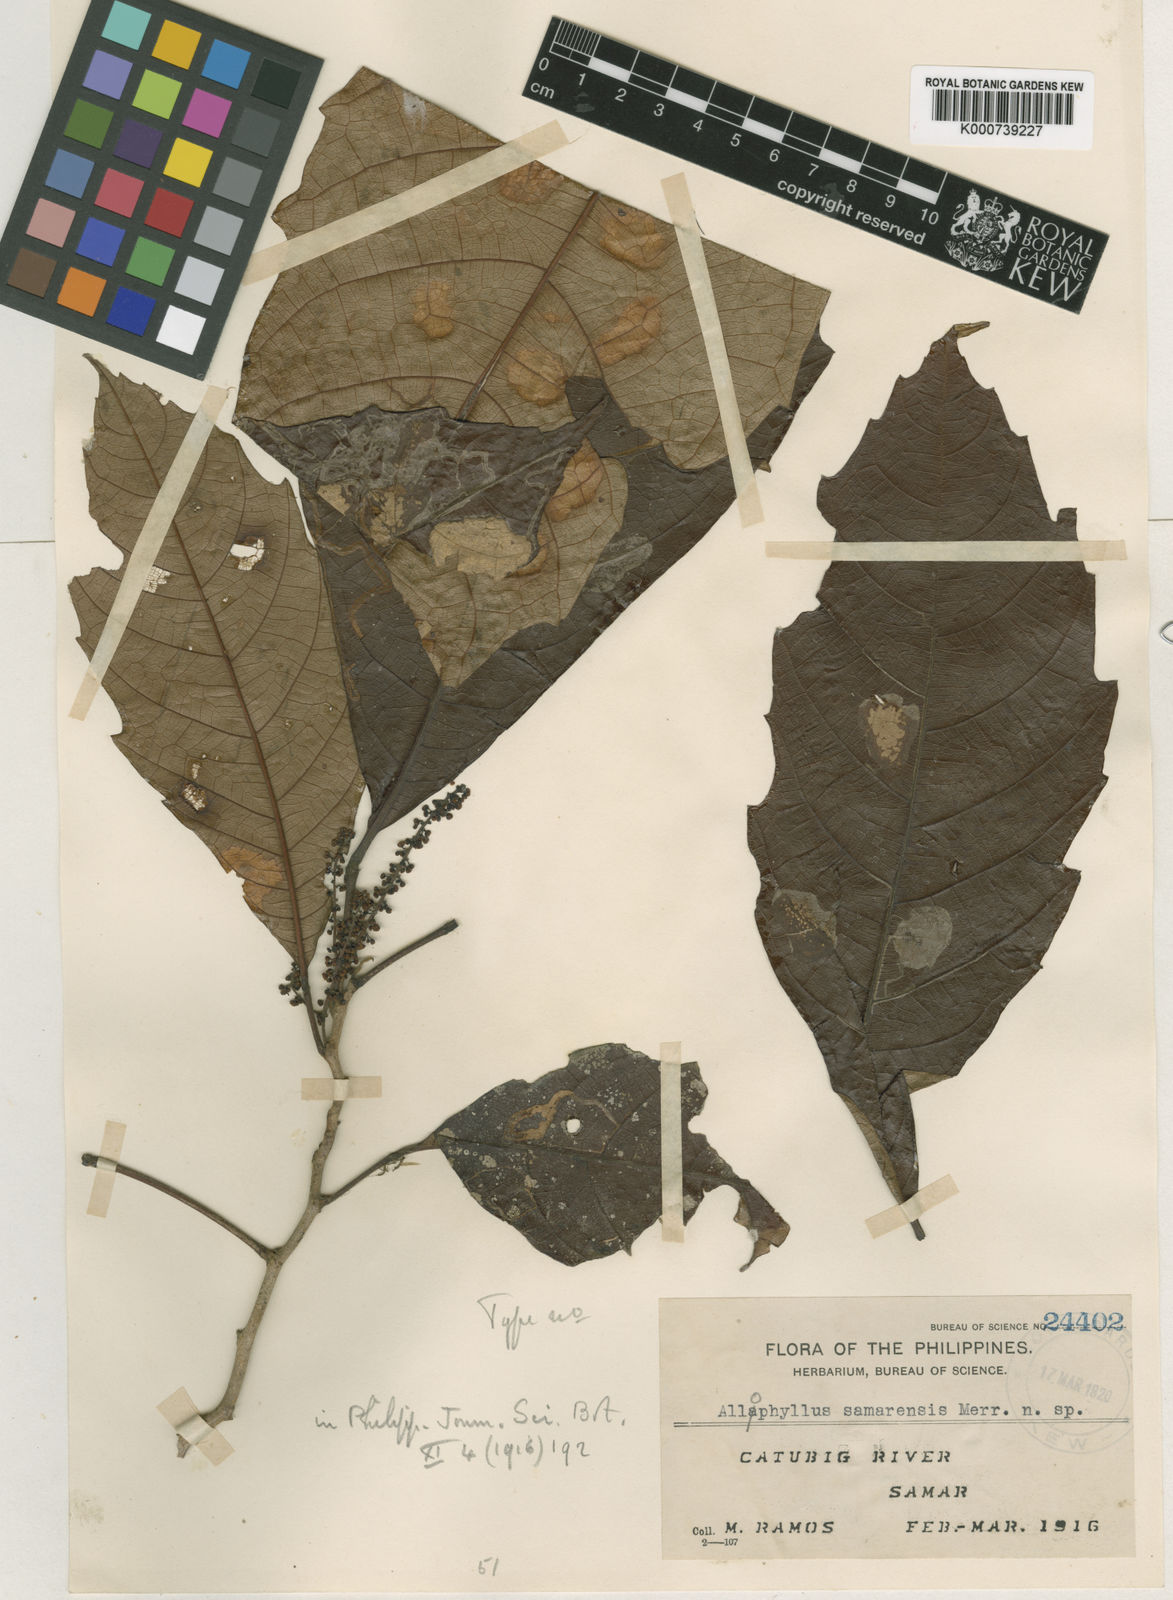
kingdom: Plantae
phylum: Tracheophyta
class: Magnoliopsida
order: Sapindales
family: Sapindaceae
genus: Allophylus
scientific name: Allophylus samarensis
